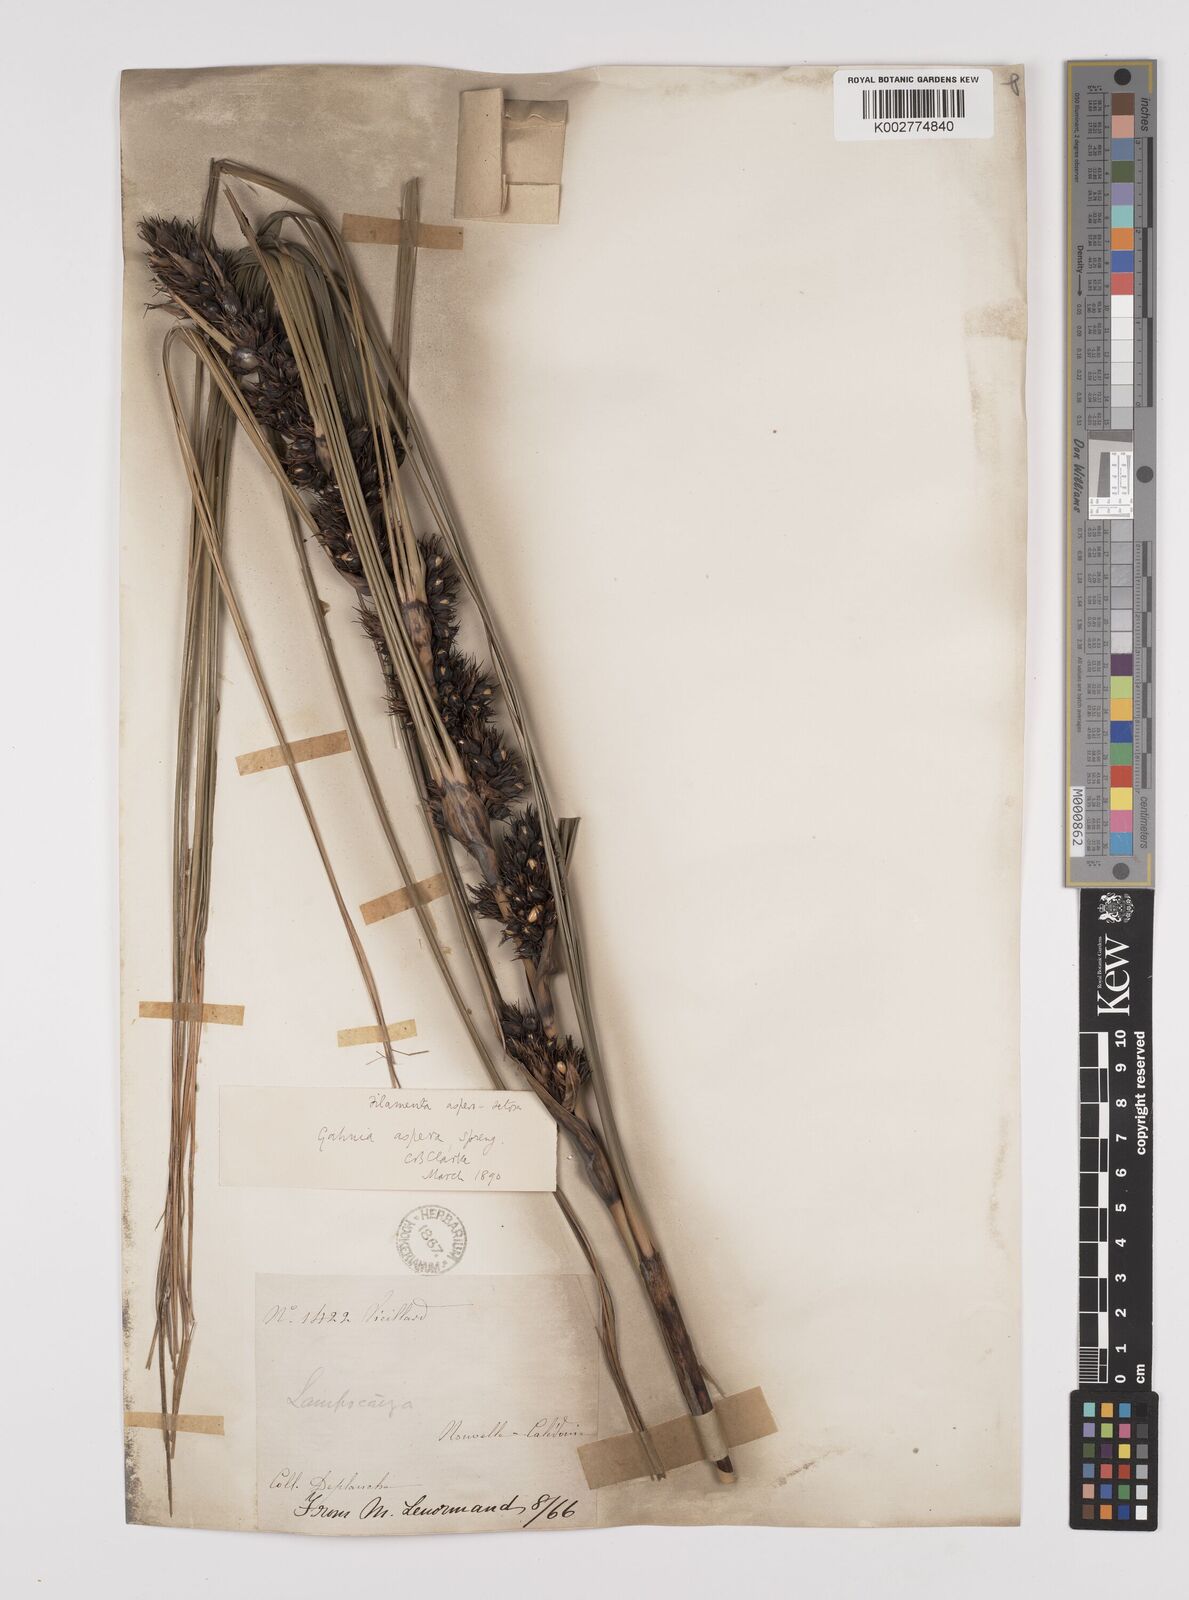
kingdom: Plantae
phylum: Tracheophyta
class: Liliopsida
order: Poales
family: Cyperaceae
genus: Gahnia
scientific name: Gahnia aspera
